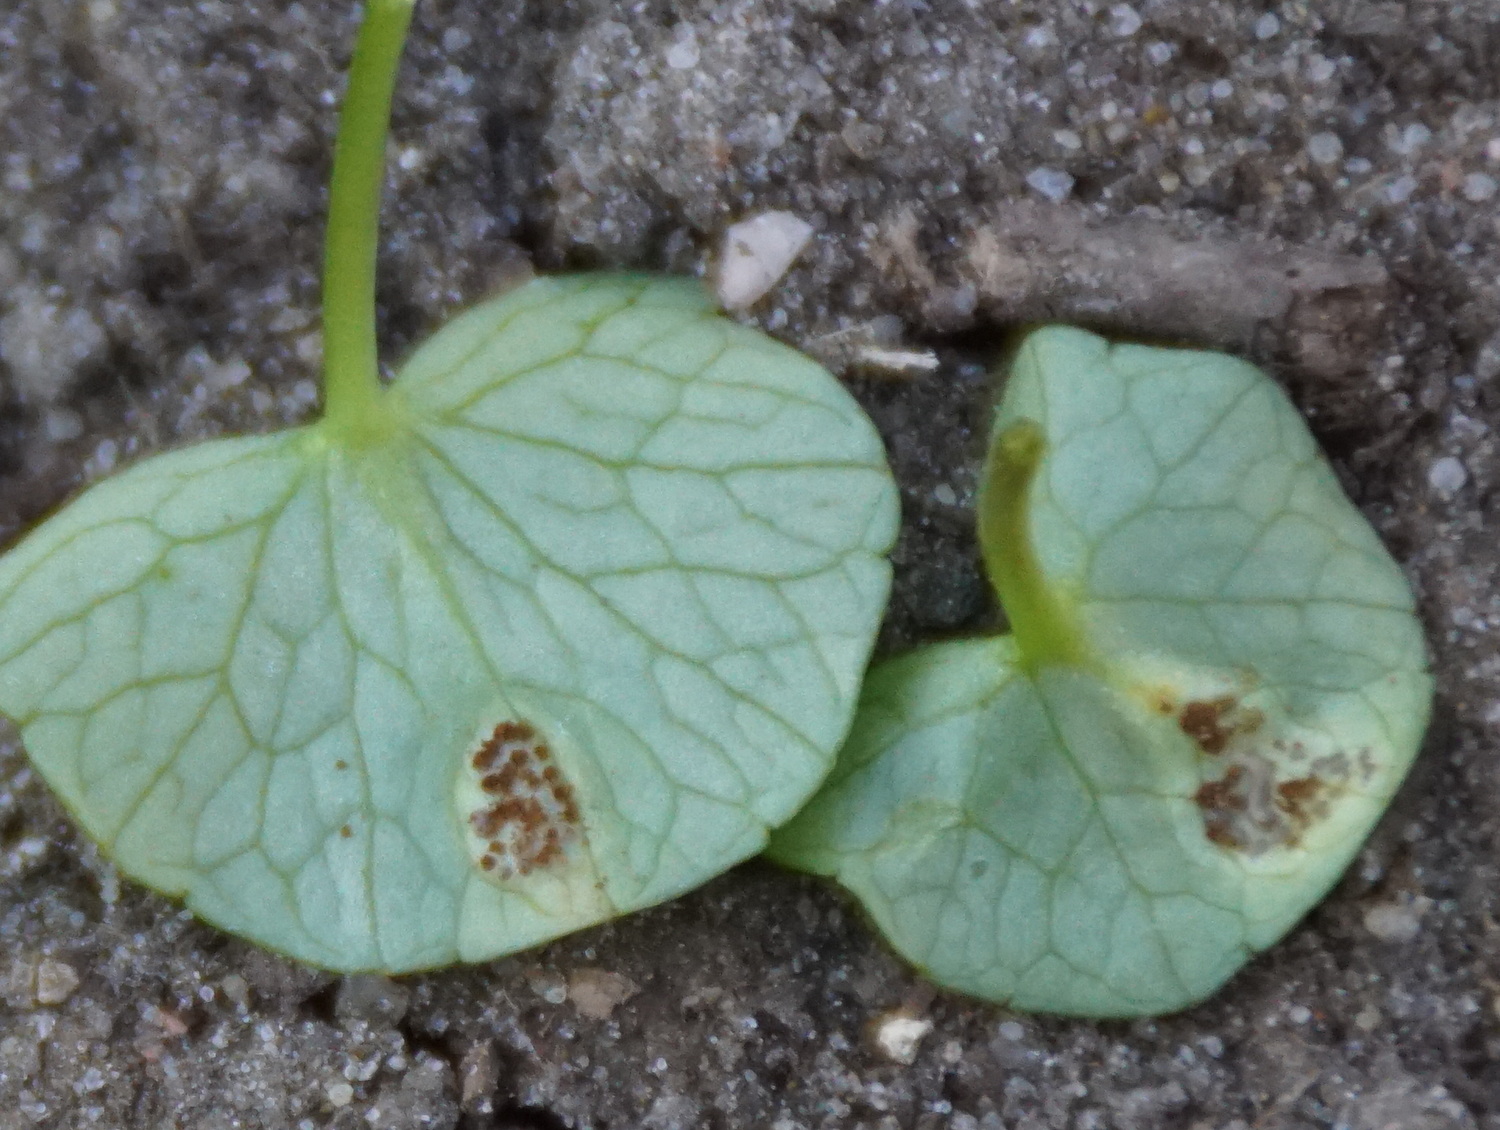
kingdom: Fungi
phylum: Basidiomycota
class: Pucciniomycetes
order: Pucciniales
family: Pucciniaceae
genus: Uromyces
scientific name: Uromyces ficariae
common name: vorterod-encellerust
